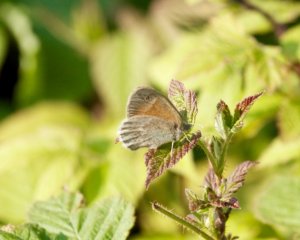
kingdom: Animalia
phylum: Arthropoda
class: Insecta
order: Lepidoptera
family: Nymphalidae
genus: Coenonympha
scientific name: Coenonympha tullia
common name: Large Heath
